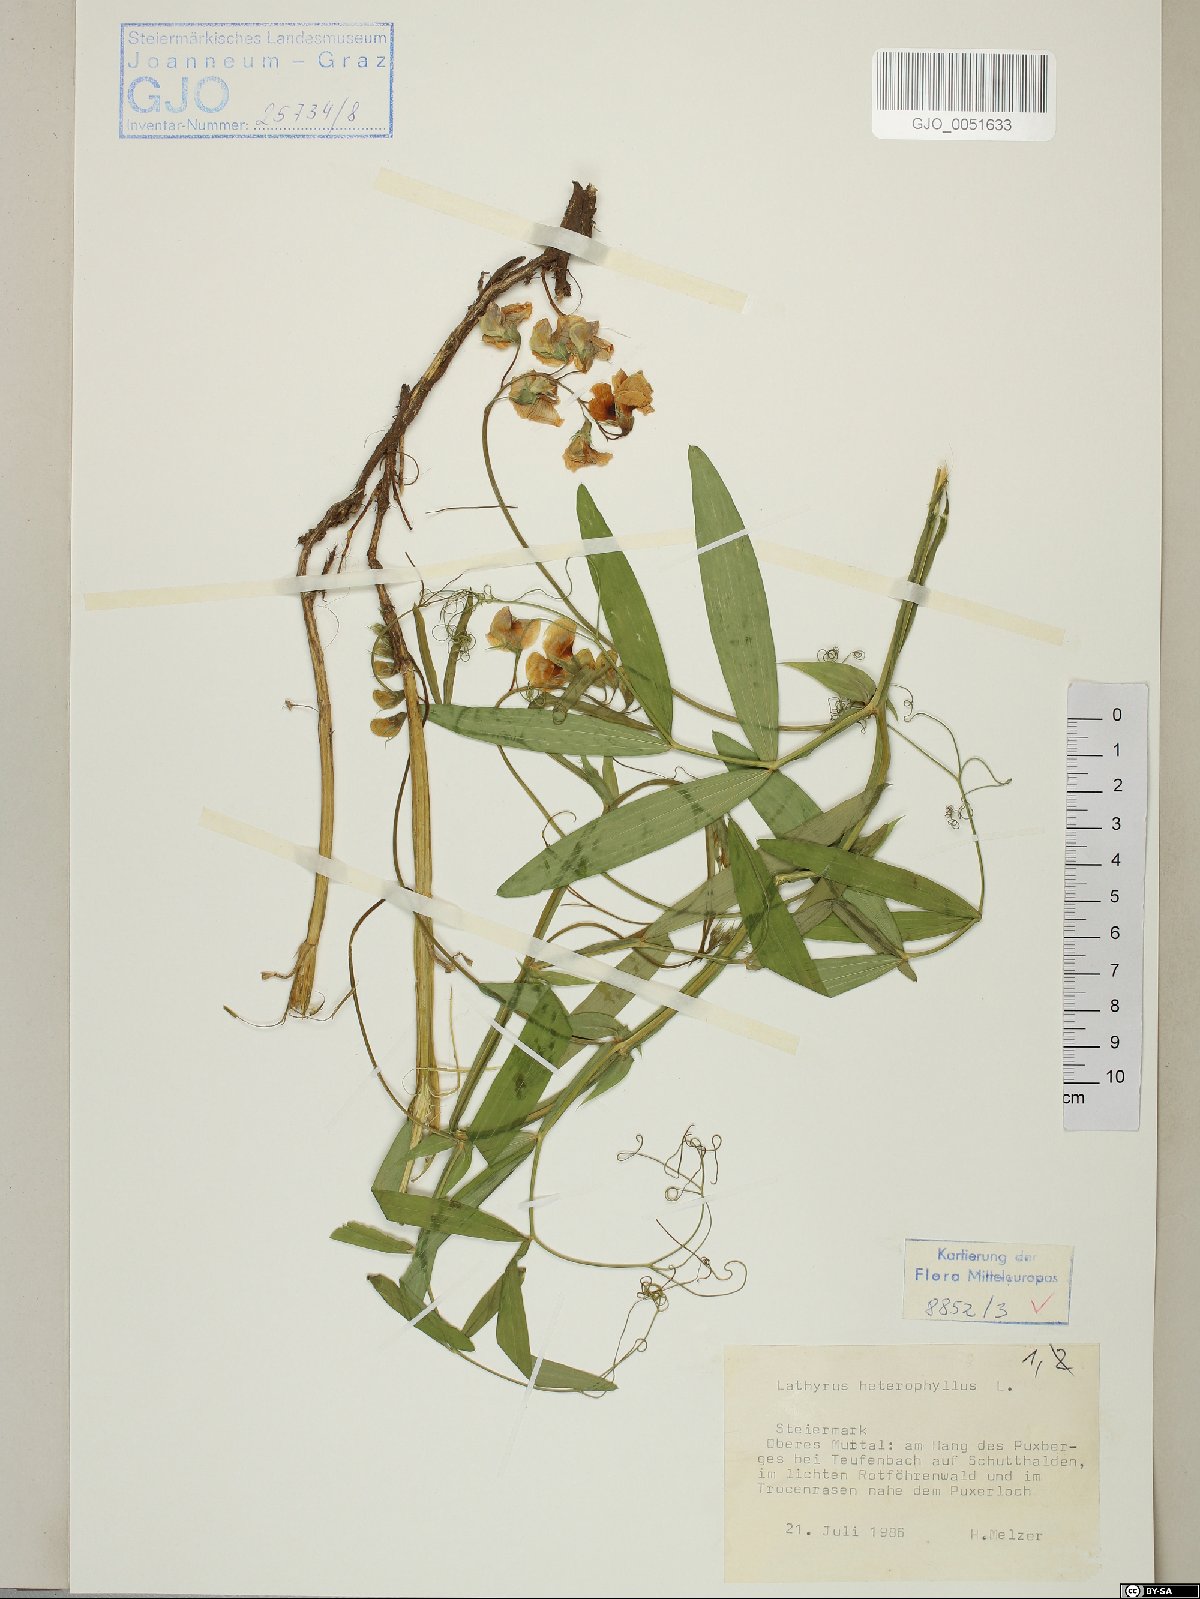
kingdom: Plantae
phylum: Tracheophyta
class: Magnoliopsida
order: Fabales
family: Fabaceae
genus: Lathyrus
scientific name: Lathyrus heterophyllus
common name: Norfolk everlasting-pea
